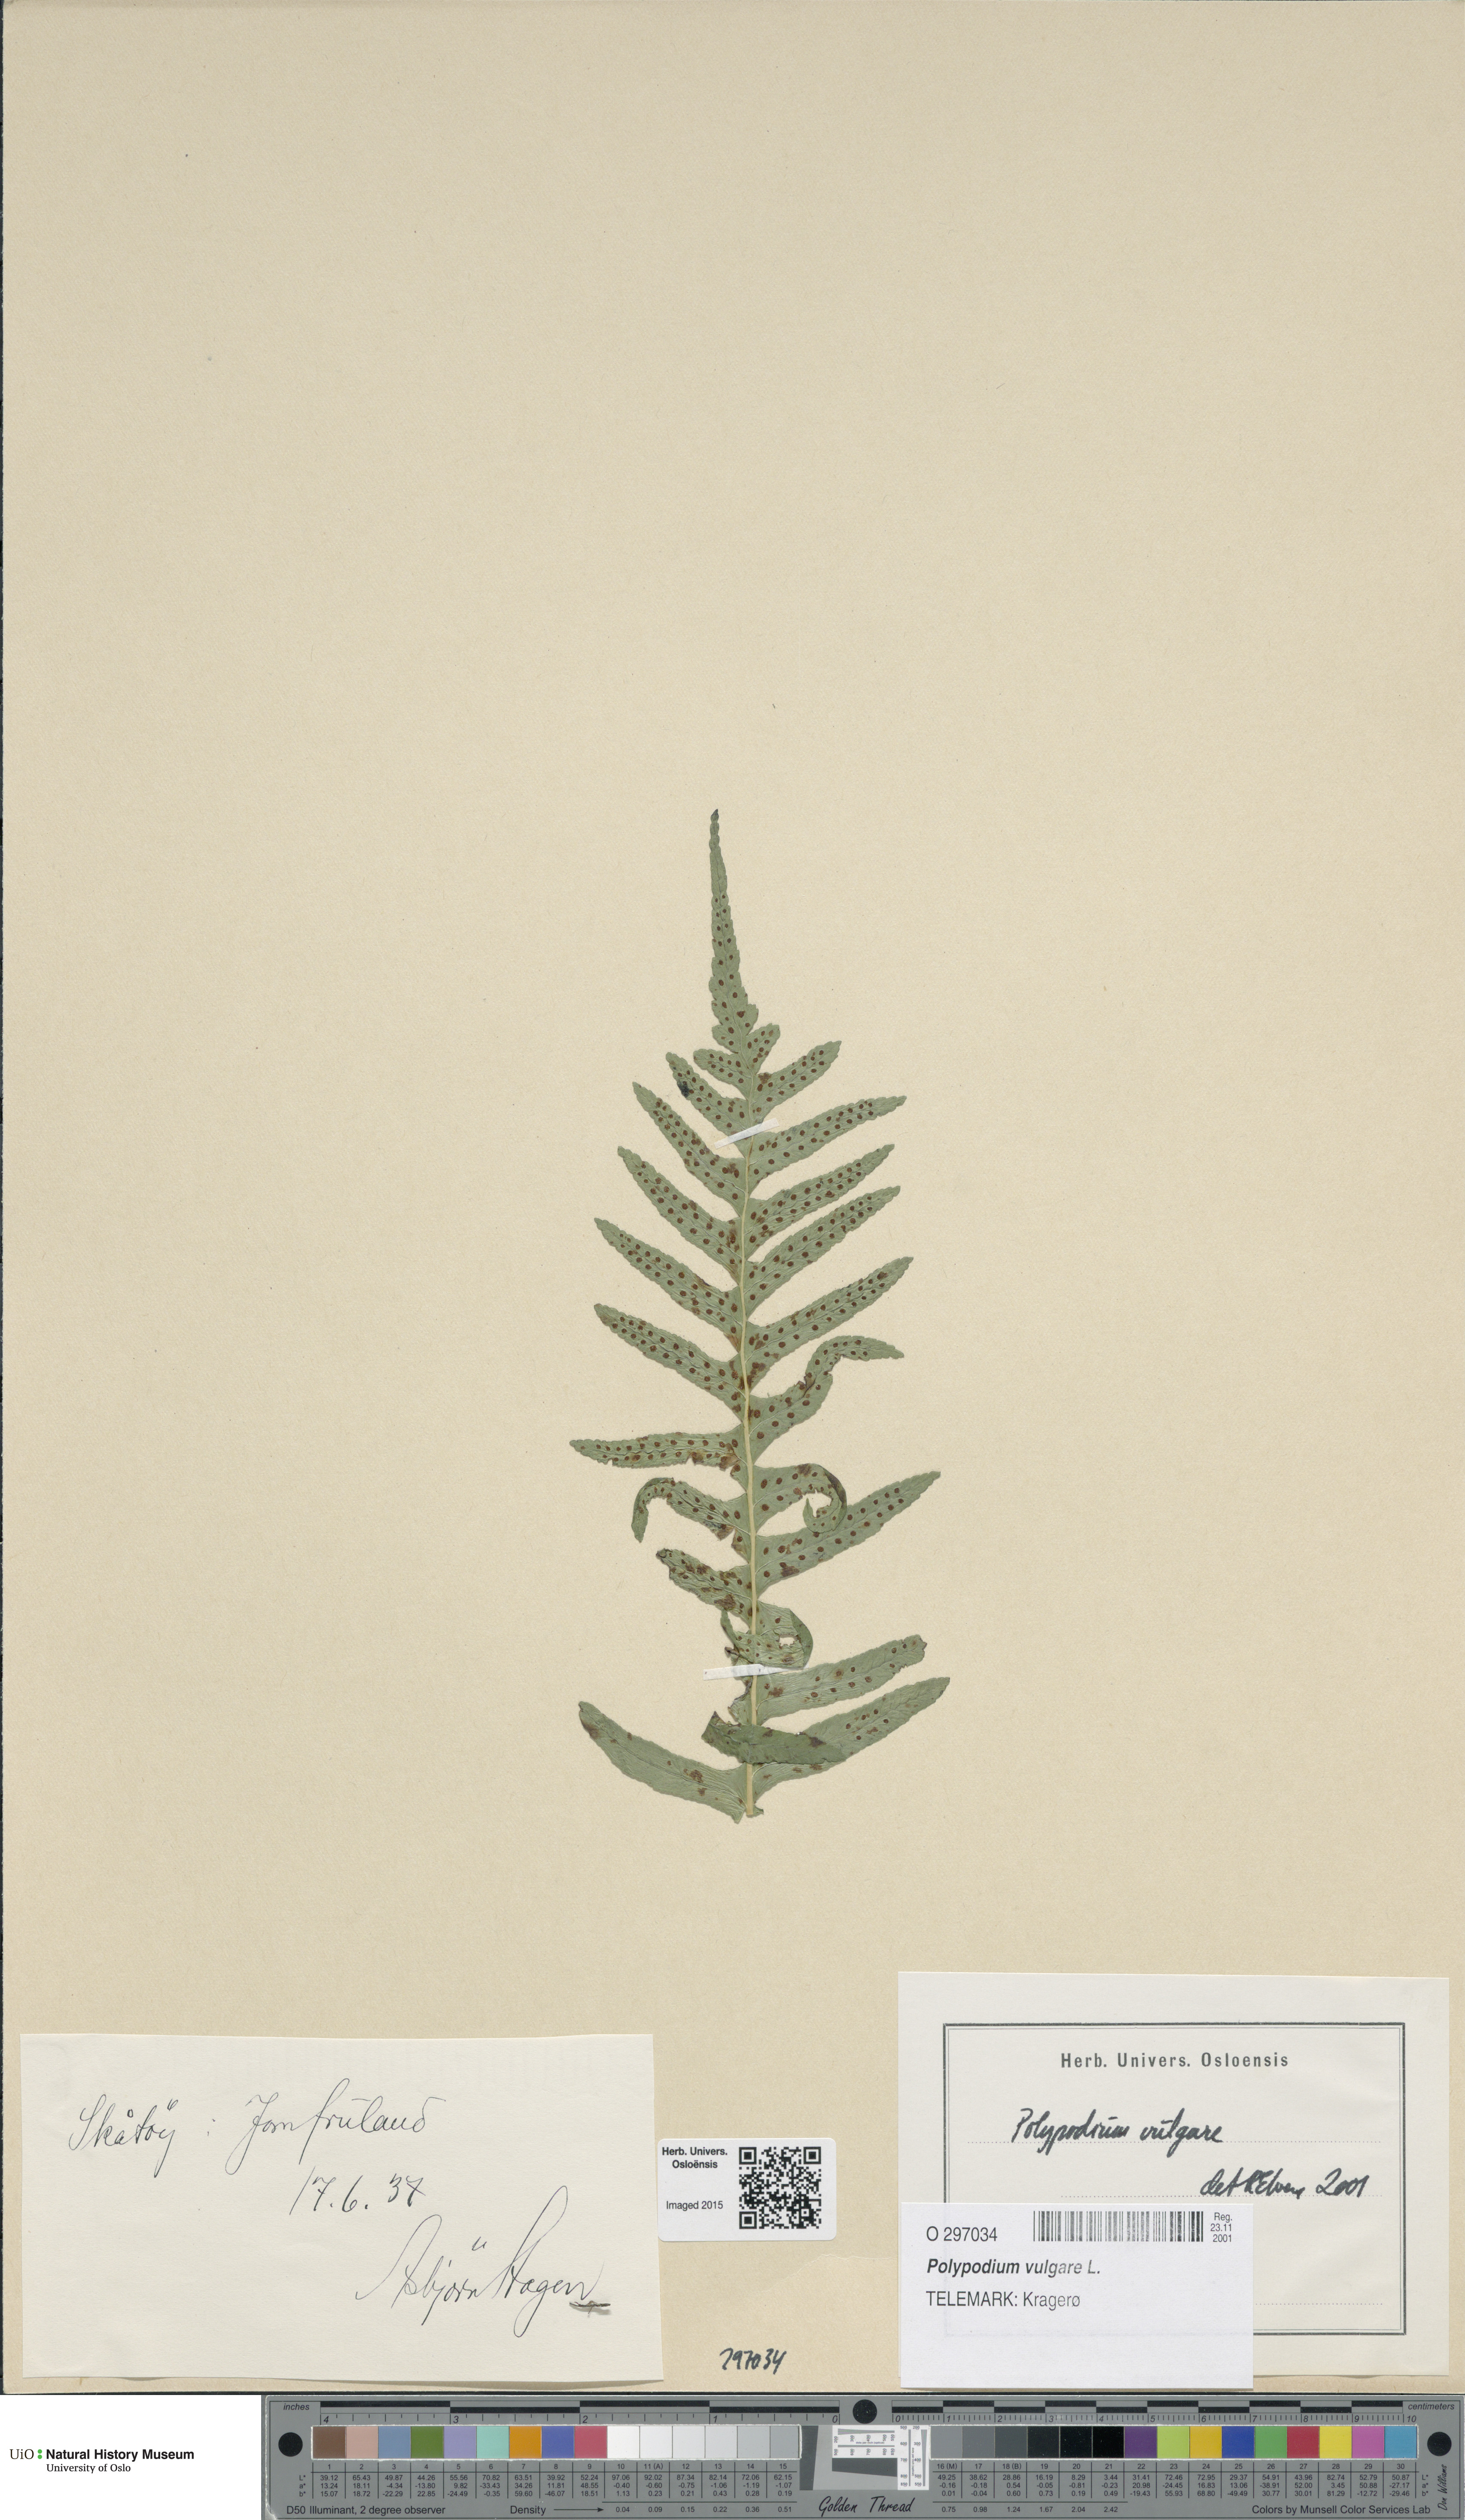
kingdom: Plantae
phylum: Tracheophyta
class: Polypodiopsida
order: Polypodiales
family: Polypodiaceae
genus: Polypodium
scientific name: Polypodium vulgare
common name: Common polypody
